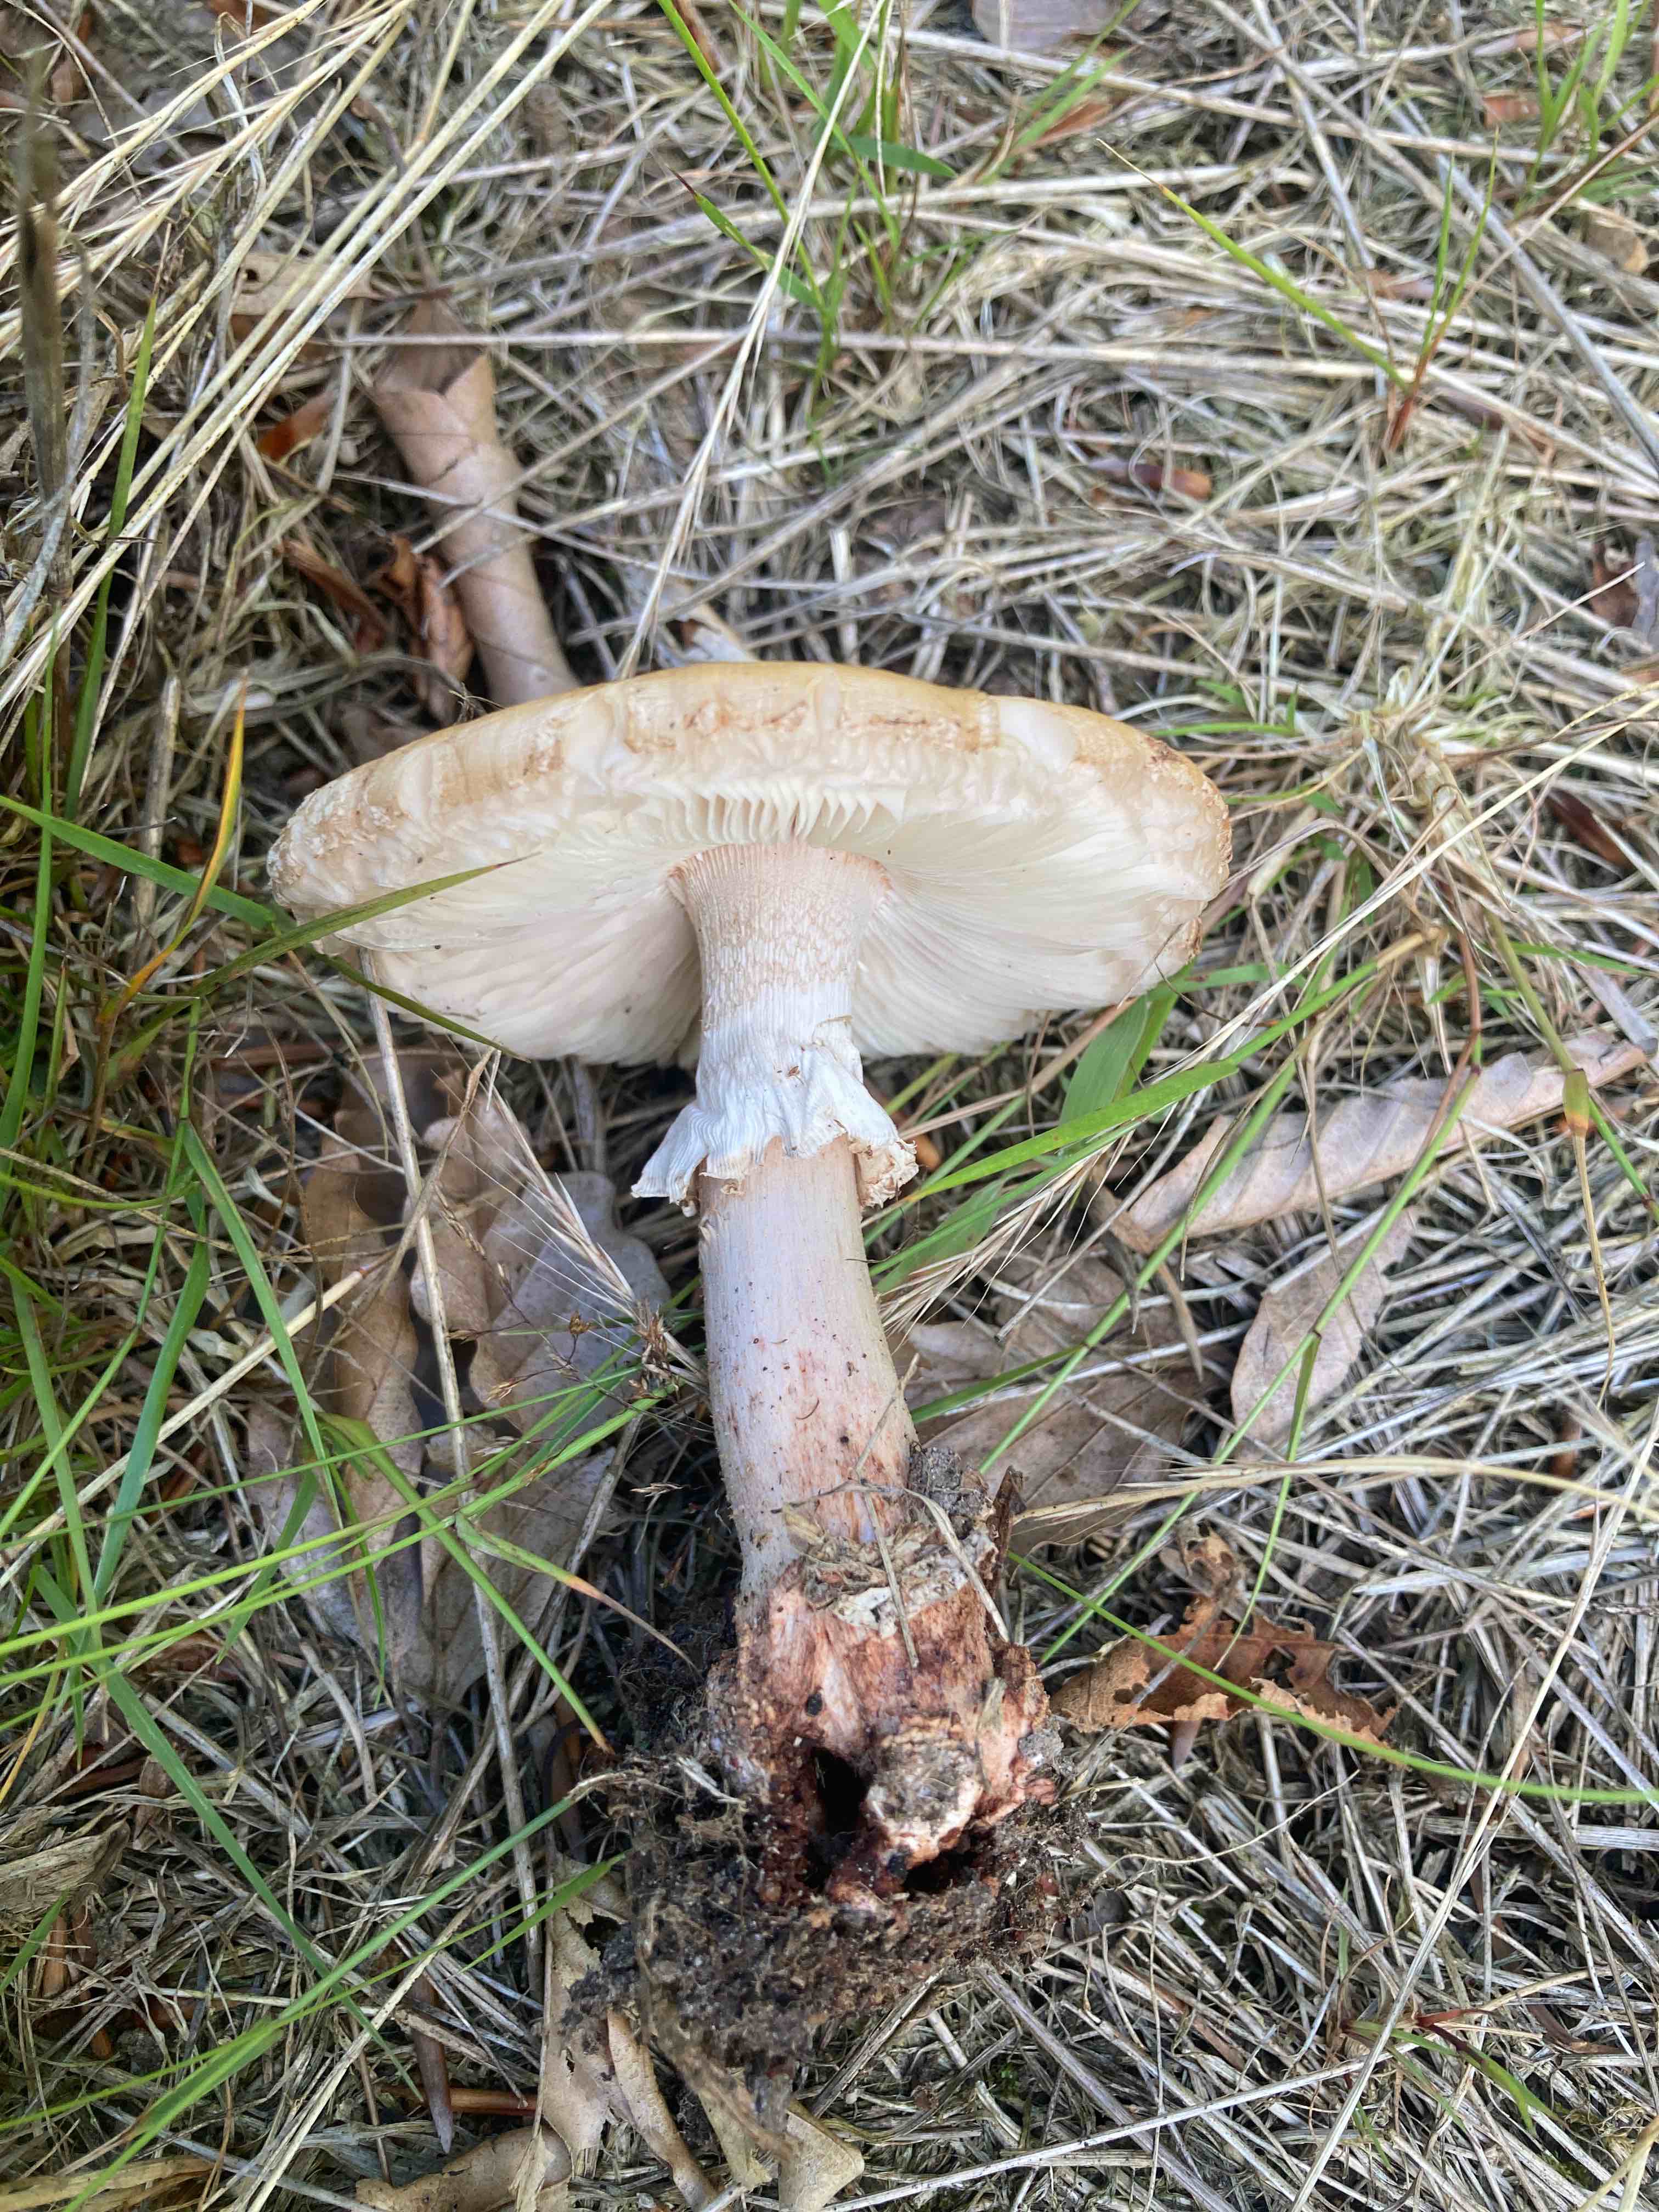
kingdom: Fungi
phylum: Basidiomycota
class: Agaricomycetes
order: Agaricales
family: Amanitaceae
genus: Amanita
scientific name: Amanita rubescens
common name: rødmende fluesvamp
